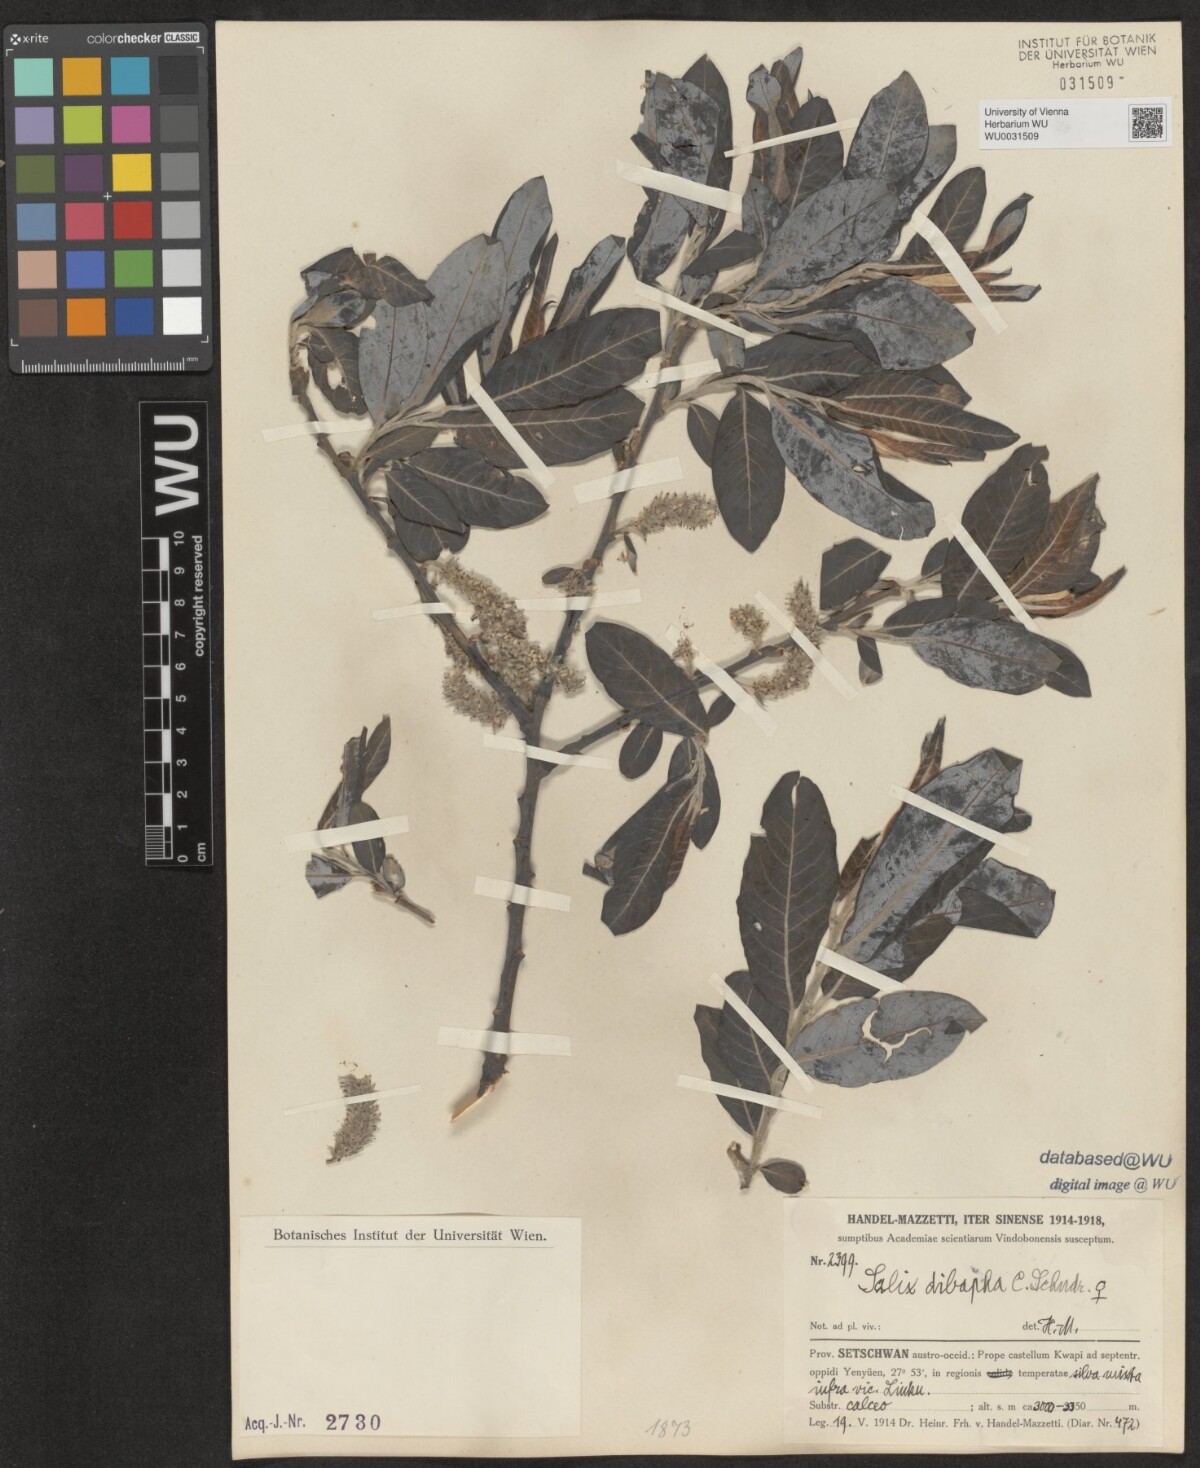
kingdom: Plantae
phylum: Tracheophyta
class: Magnoliopsida
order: Malpighiales
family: Salicaceae
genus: Salix
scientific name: Salix dibapha
